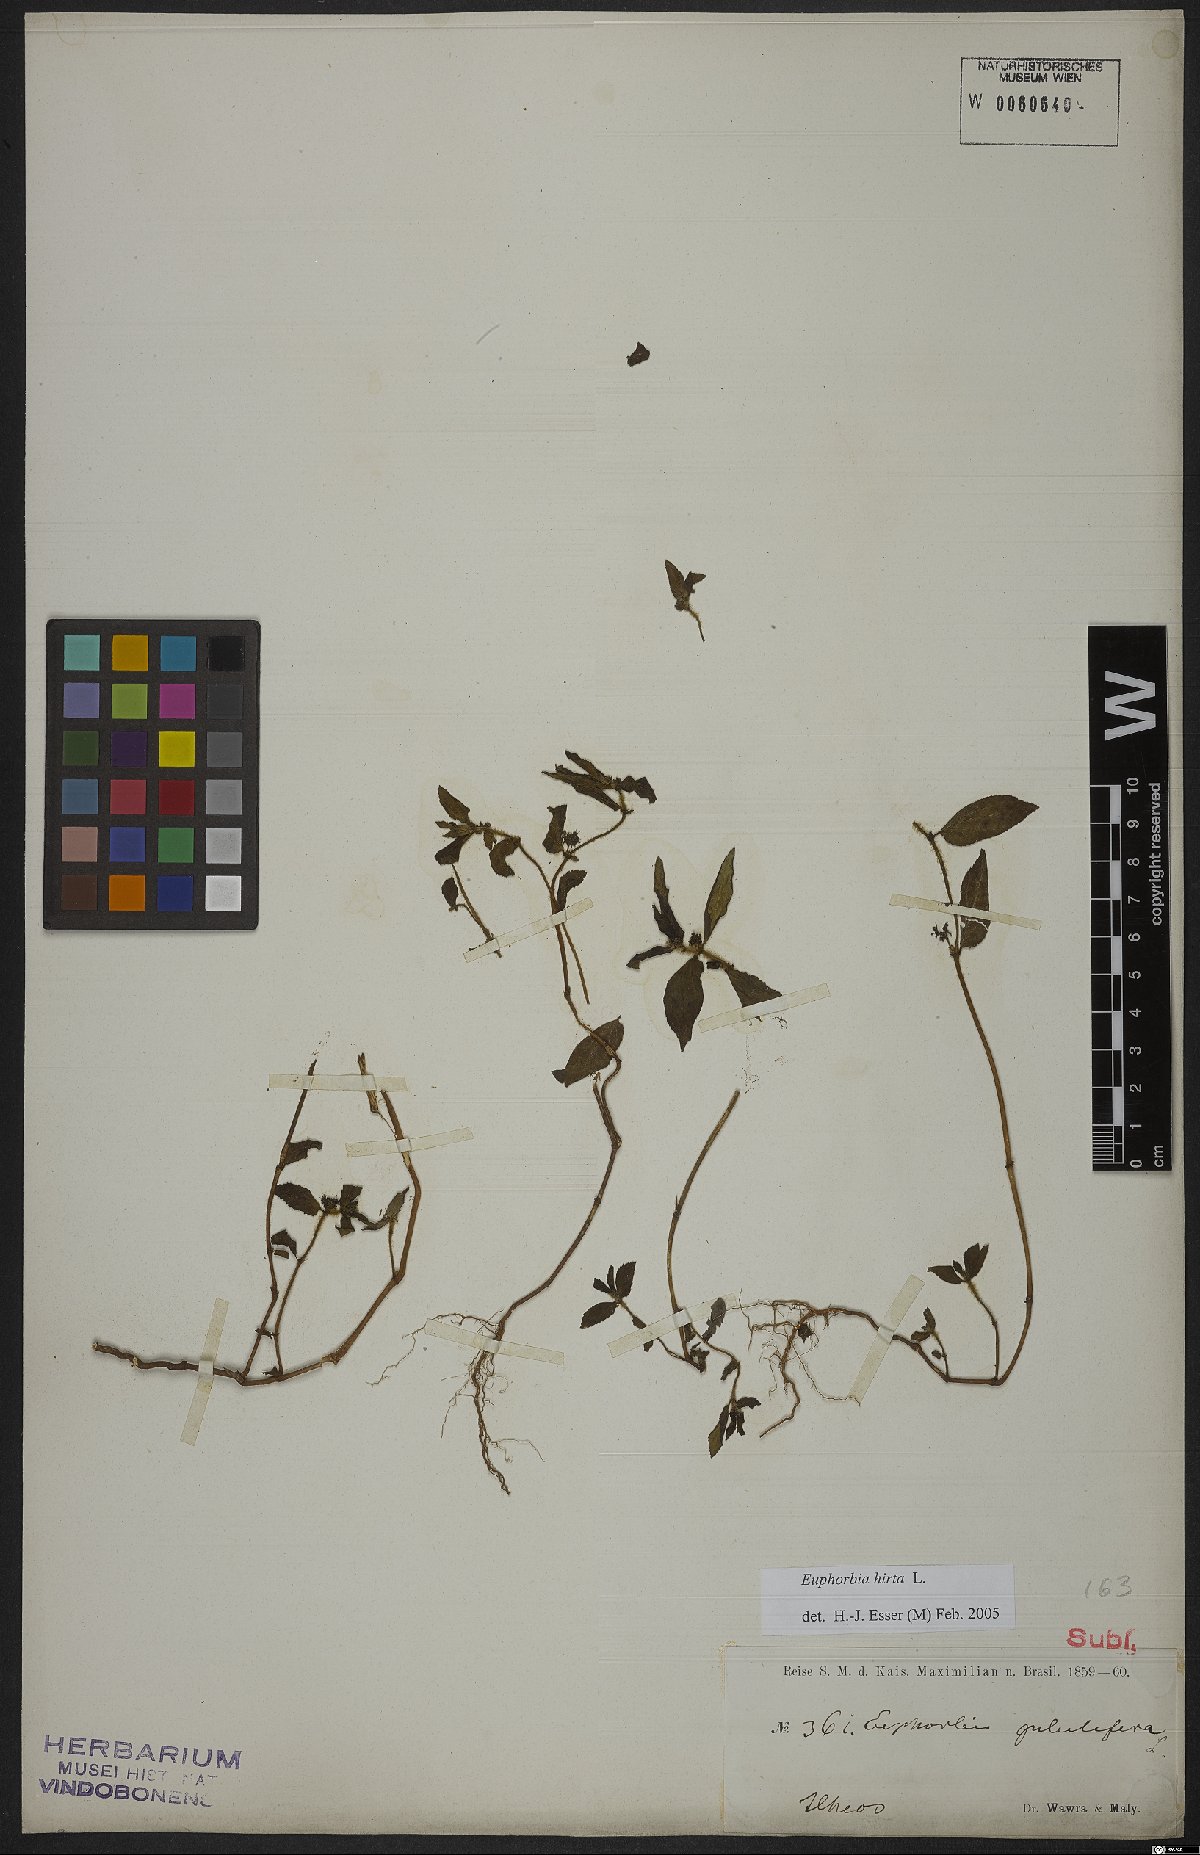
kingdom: Plantae
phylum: Tracheophyta
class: Magnoliopsida
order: Malpighiales
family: Euphorbiaceae
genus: Euphorbia
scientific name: Euphorbia hirta
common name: Pillpod sandmat
